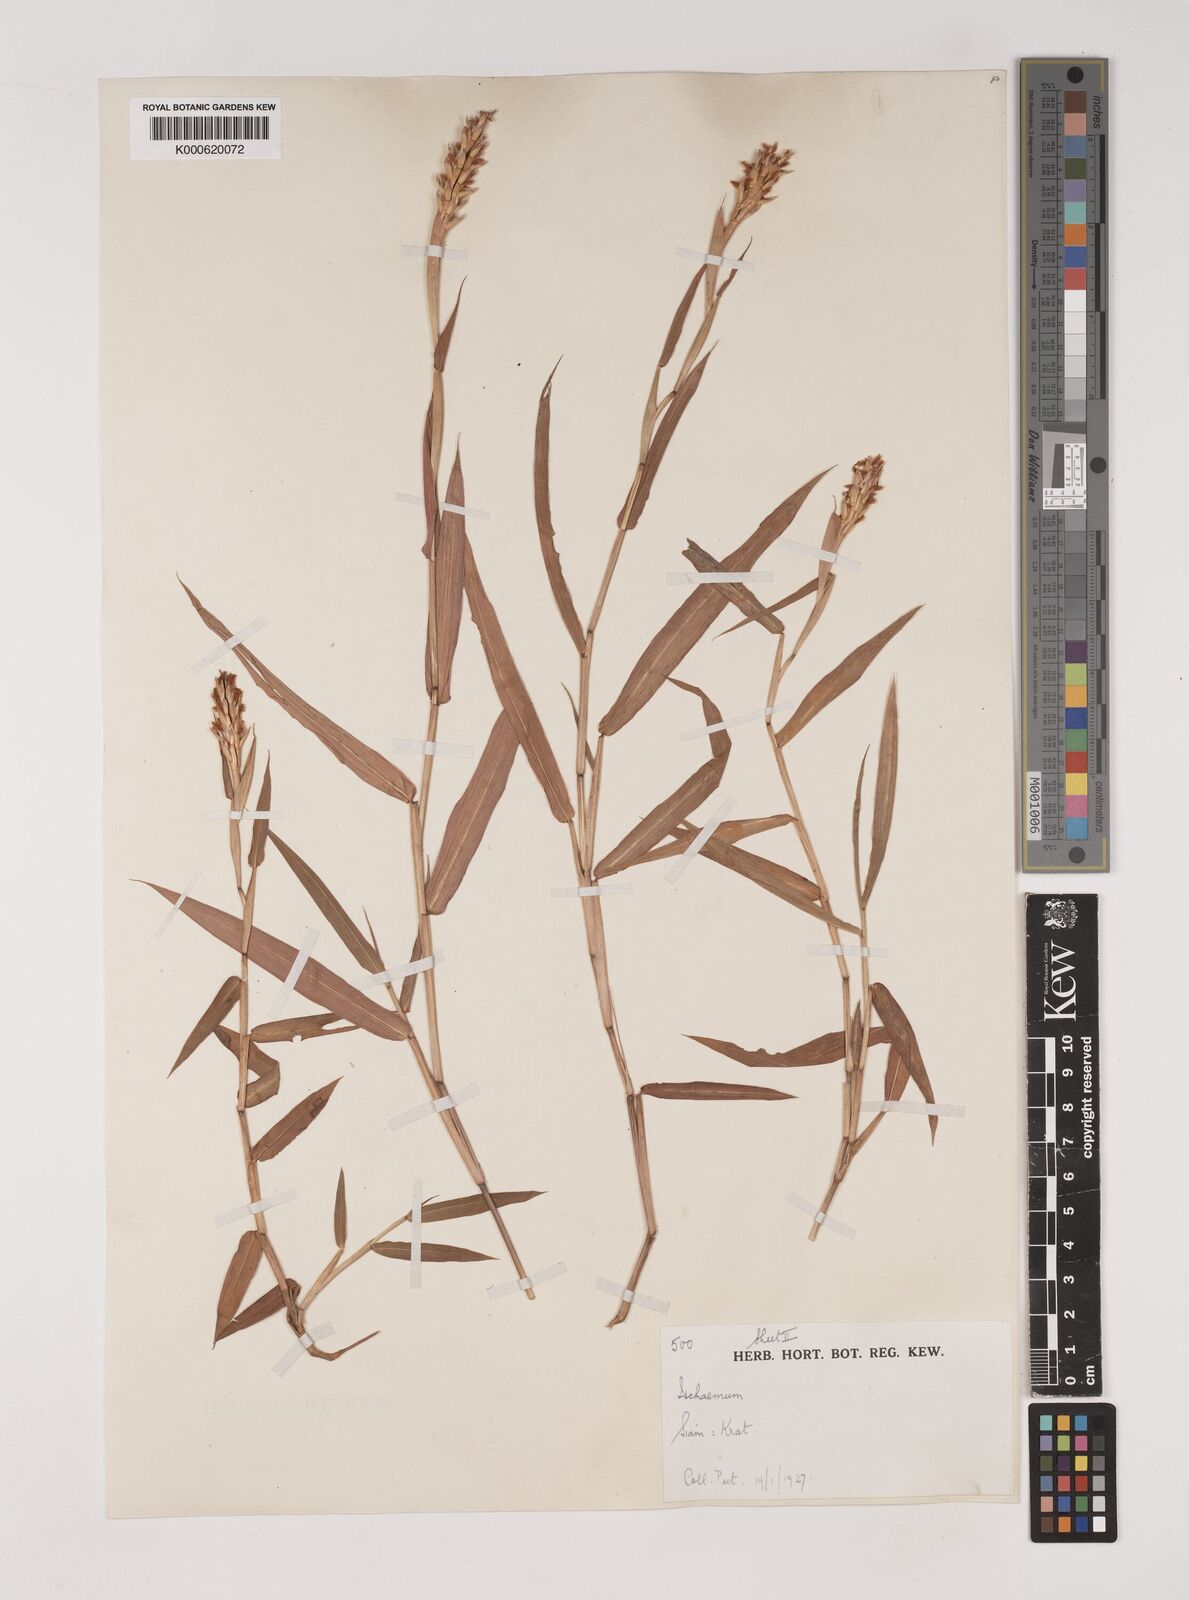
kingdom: Plantae
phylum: Tracheophyta
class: Liliopsida
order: Poales
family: Poaceae
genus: Ischaemum
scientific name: Ischaemum muticum
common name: Drought grass
